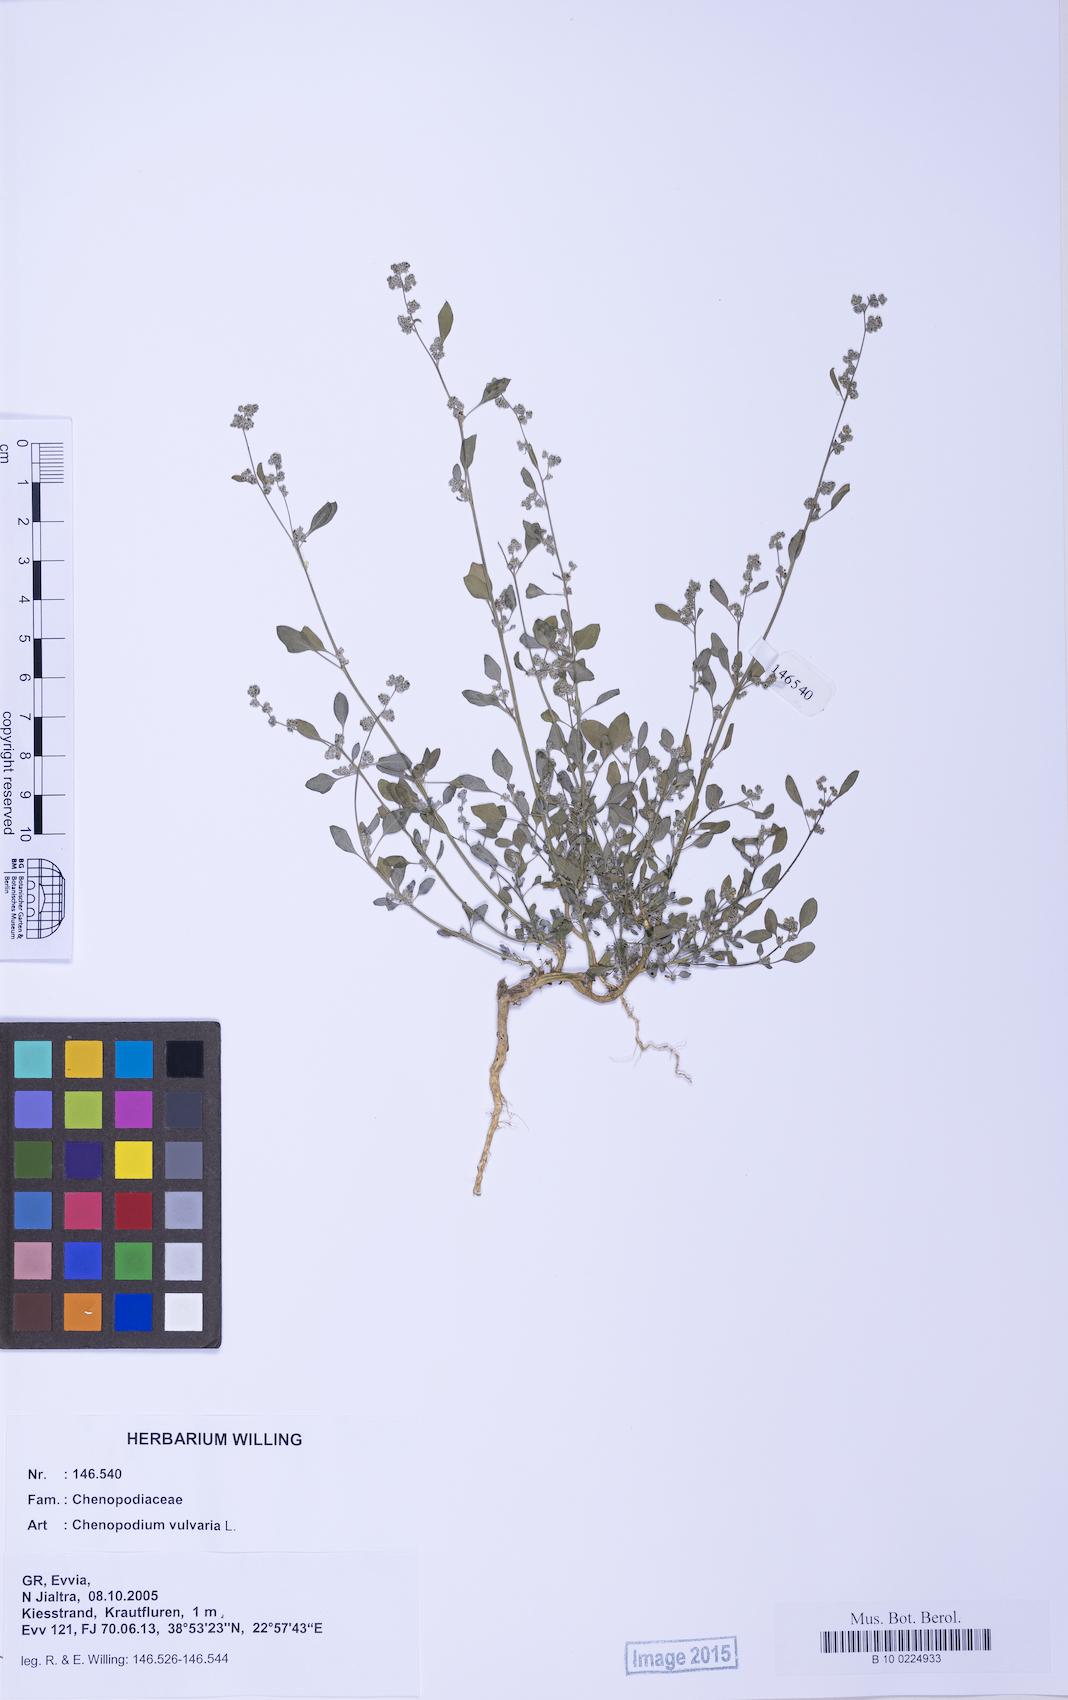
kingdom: Plantae
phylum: Tracheophyta
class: Magnoliopsida
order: Caryophyllales
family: Amaranthaceae
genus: Chenopodium
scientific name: Chenopodium vulvaria
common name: Stinking goosefoot
